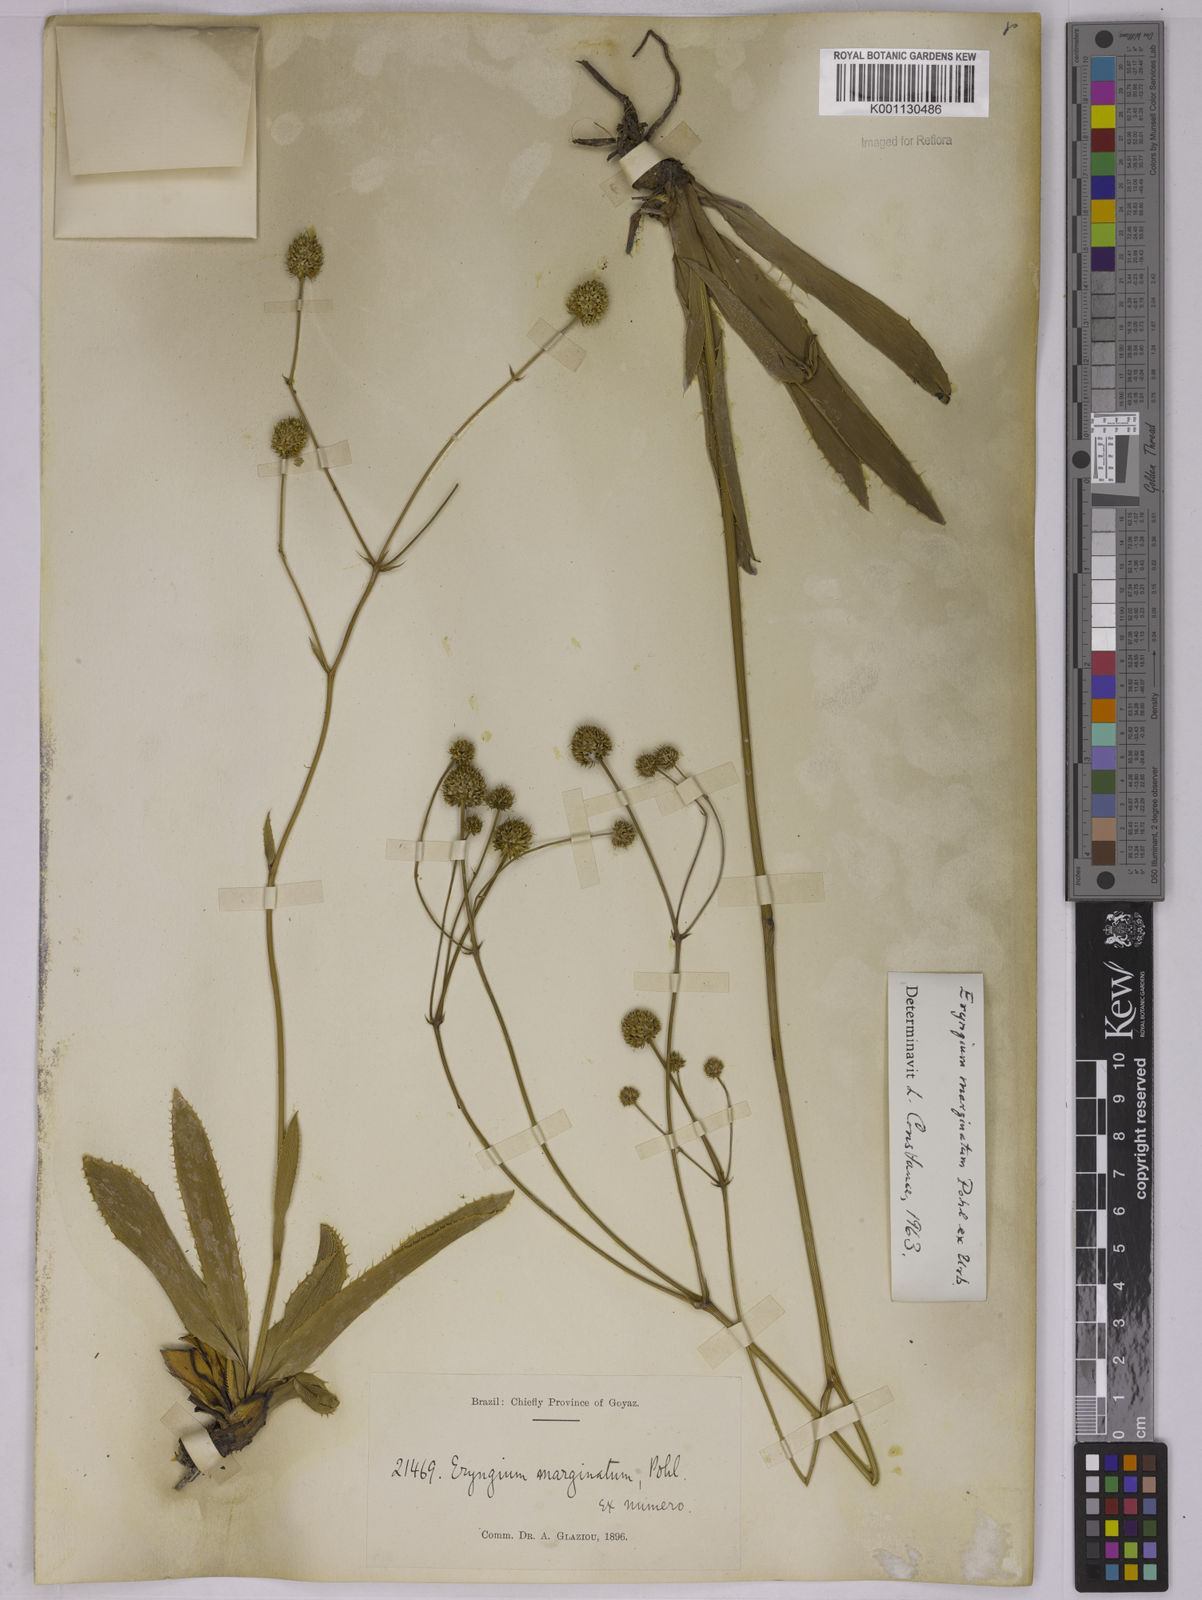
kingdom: Plantae
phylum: Tracheophyta
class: Magnoliopsida
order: Apiales
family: Apiaceae
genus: Eryngium
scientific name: Eryngium marginatum
